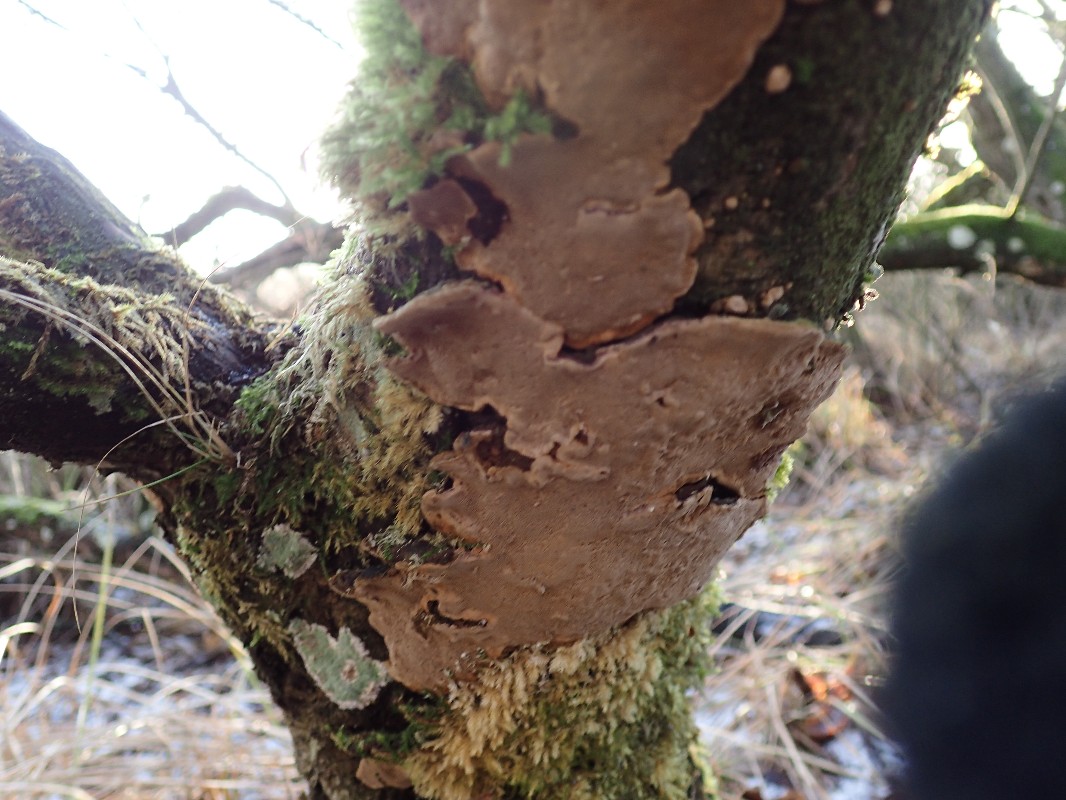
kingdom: Fungi
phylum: Basidiomycota
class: Agaricomycetes
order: Hymenochaetales
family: Hymenochaetaceae
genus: Phellinopsis
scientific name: Phellinopsis conchata
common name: pile-ildporesvamp
